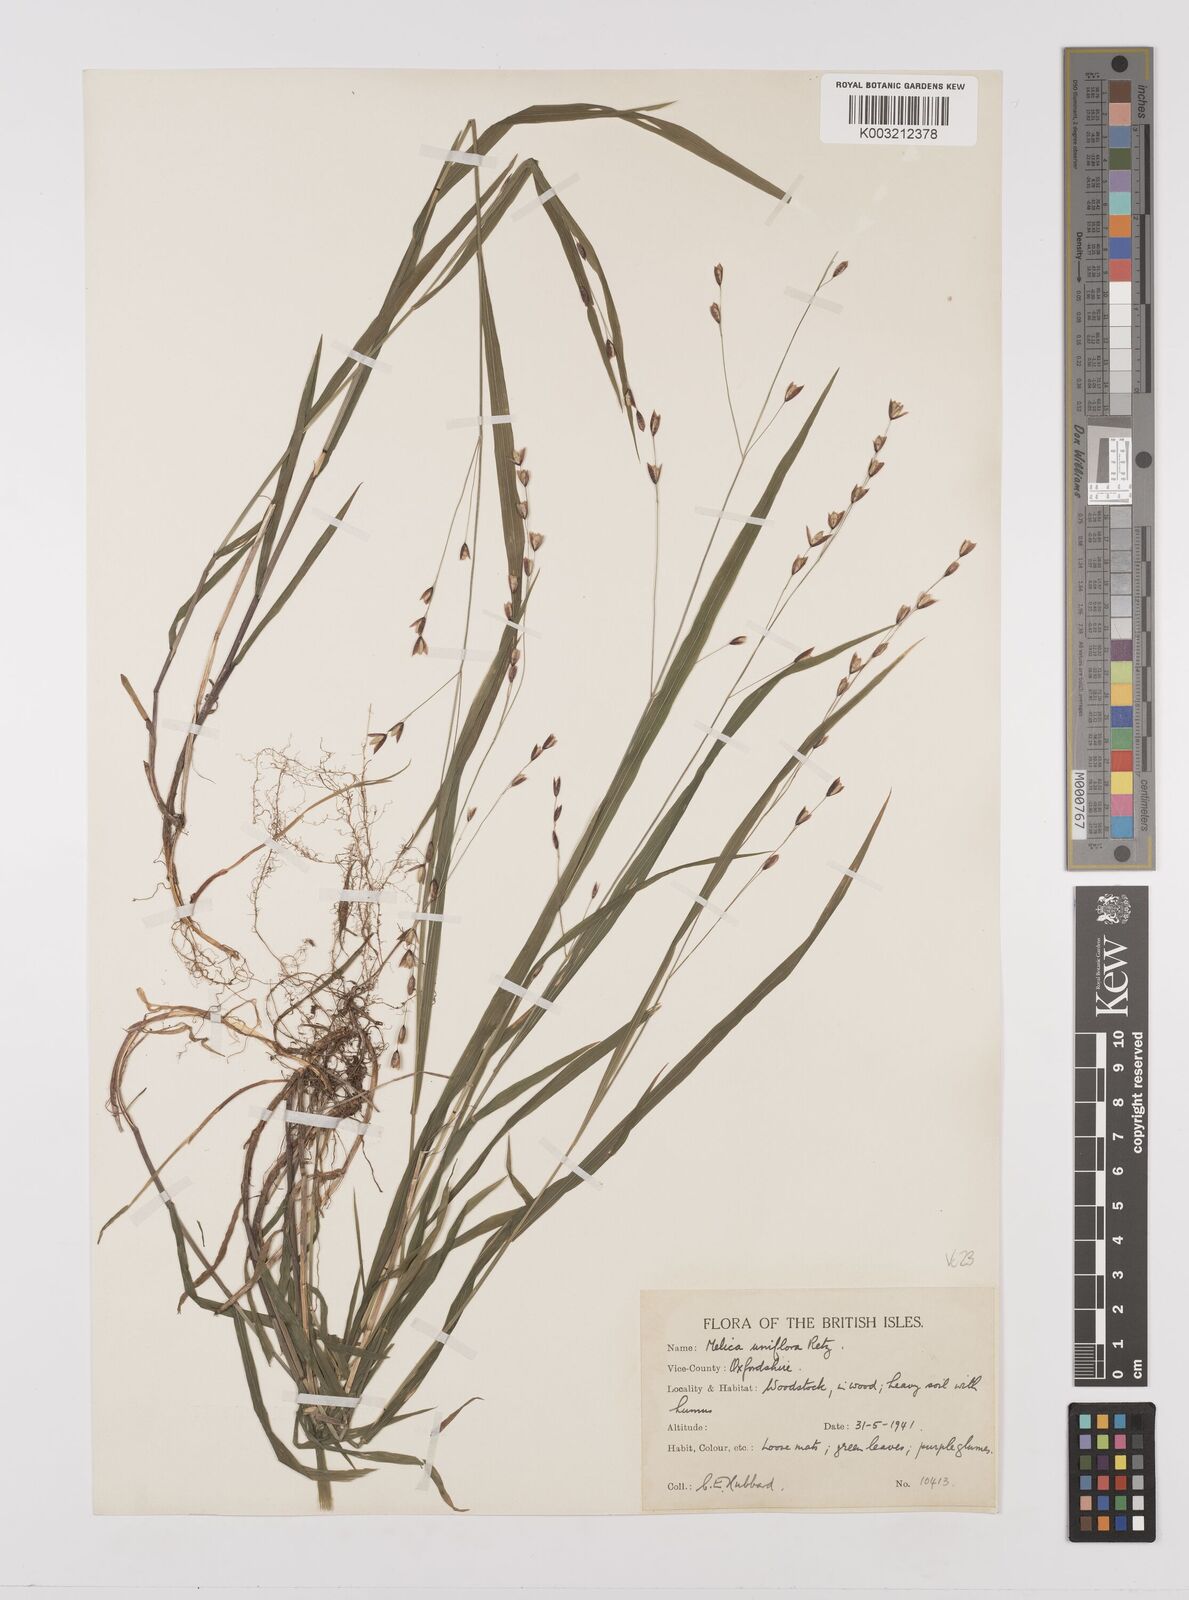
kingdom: Plantae
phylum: Tracheophyta
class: Liliopsida
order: Poales
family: Poaceae
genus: Melica
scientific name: Melica uniflora
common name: Wood melick
